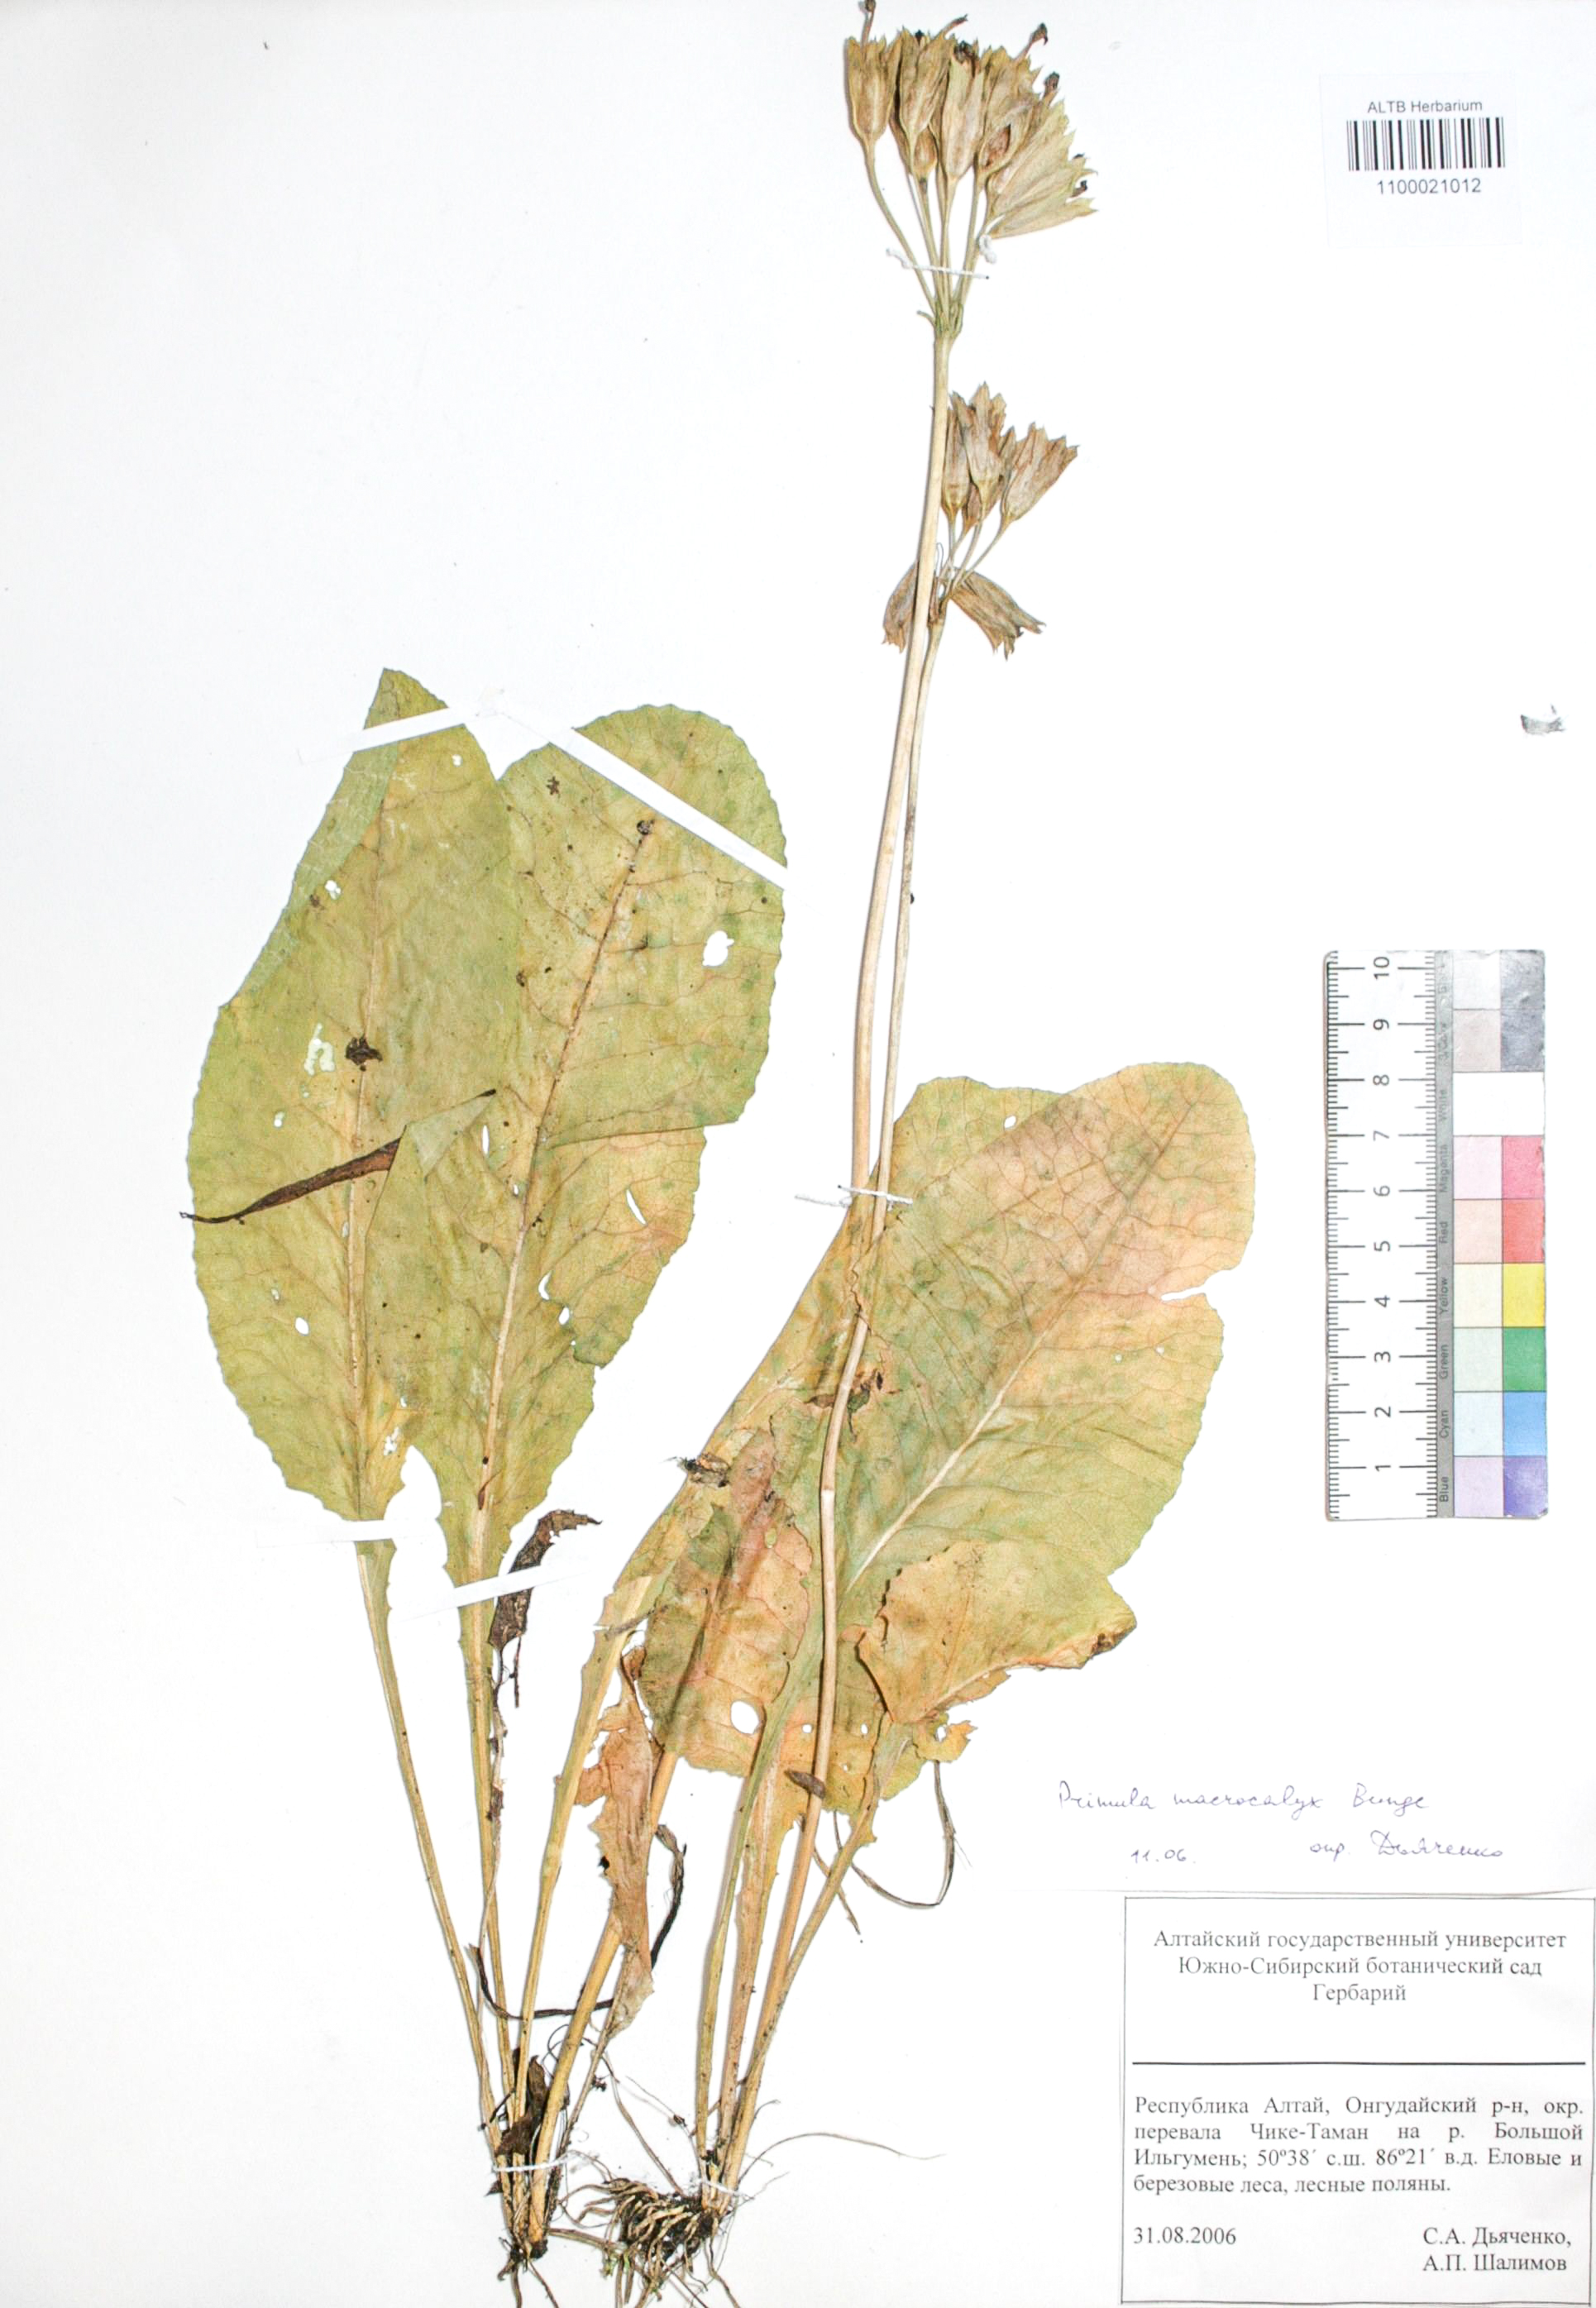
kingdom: Plantae
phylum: Tracheophyta
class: Magnoliopsida
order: Ericales
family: Primulaceae
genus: Primula
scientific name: Primula veris
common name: Cowslip
